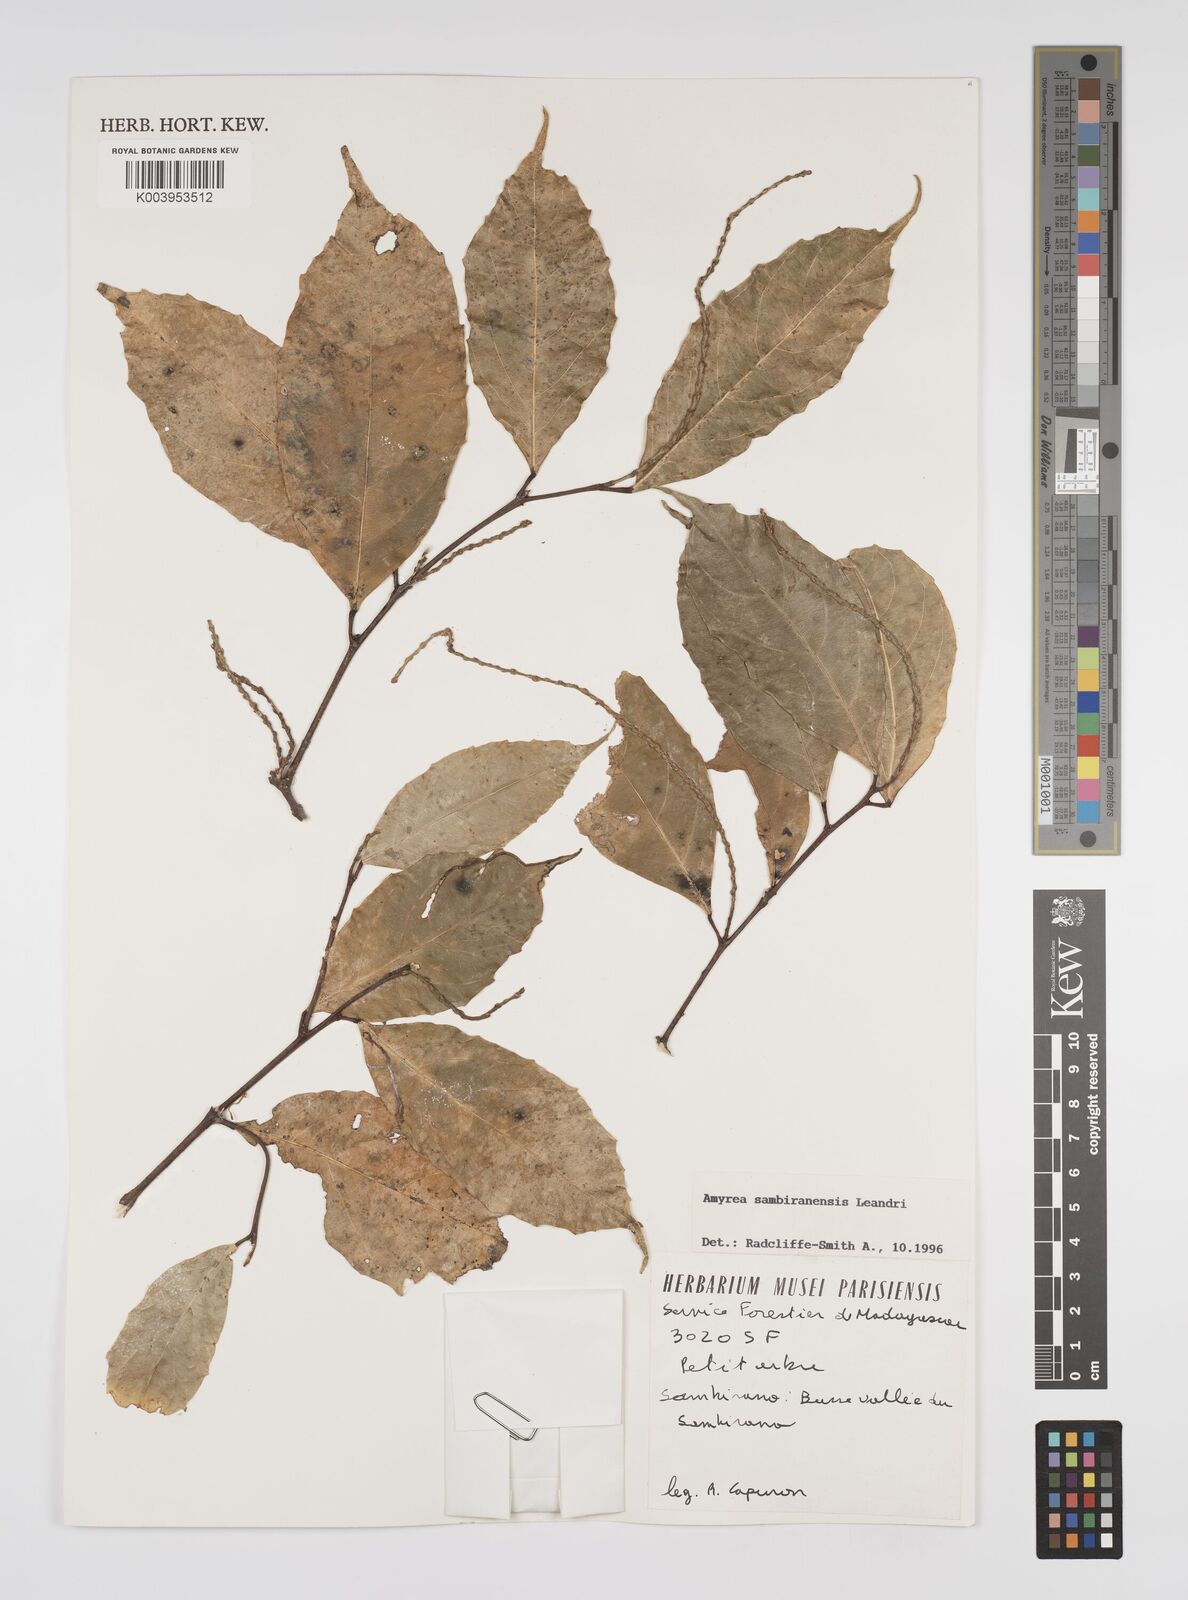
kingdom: Plantae
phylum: Tracheophyta
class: Magnoliopsida
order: Malpighiales
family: Euphorbiaceae
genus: Amyrea
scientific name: Amyrea sambiranensis
